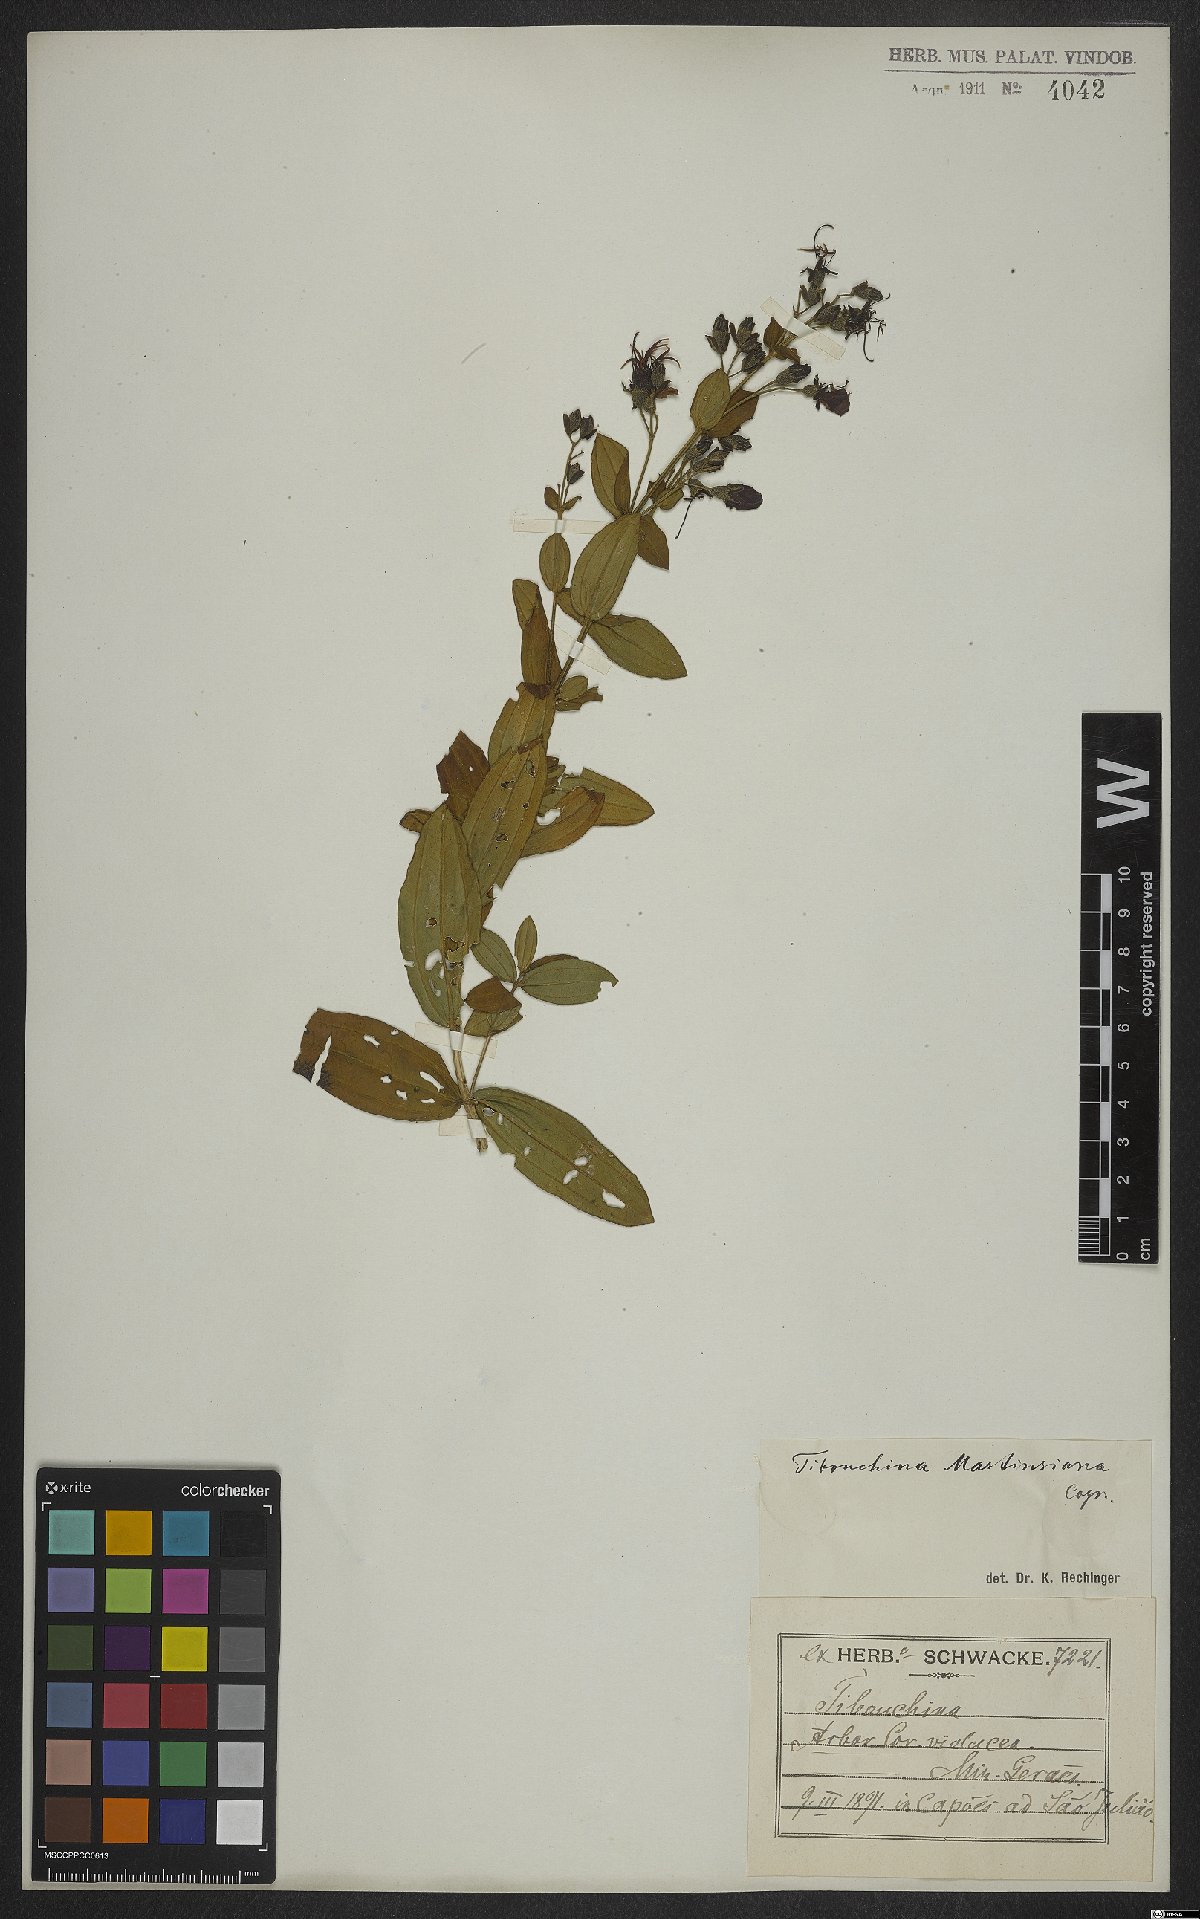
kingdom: Plantae
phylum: Tracheophyta
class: Magnoliopsida
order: Myrtales
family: Melastomataceae
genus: Pleroma
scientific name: Pleroma martiusianum
